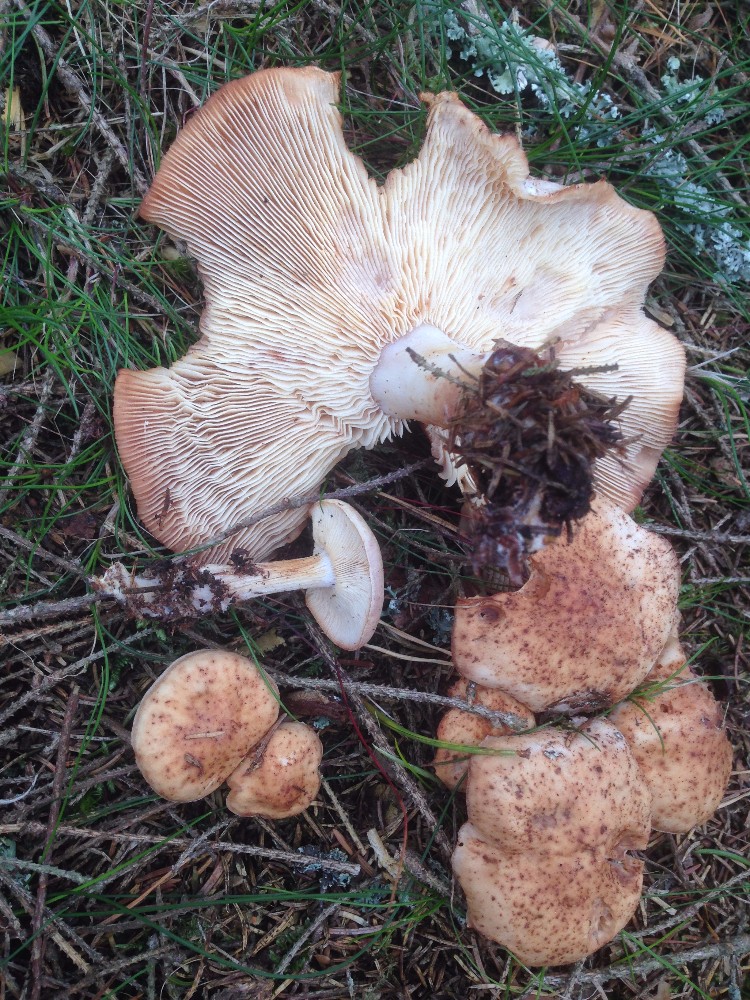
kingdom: Fungi
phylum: Basidiomycota
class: Agaricomycetes
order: Agaricales
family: Omphalotaceae
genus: Rhodocollybia
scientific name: Rhodocollybia maculata
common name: plettet fladhat
